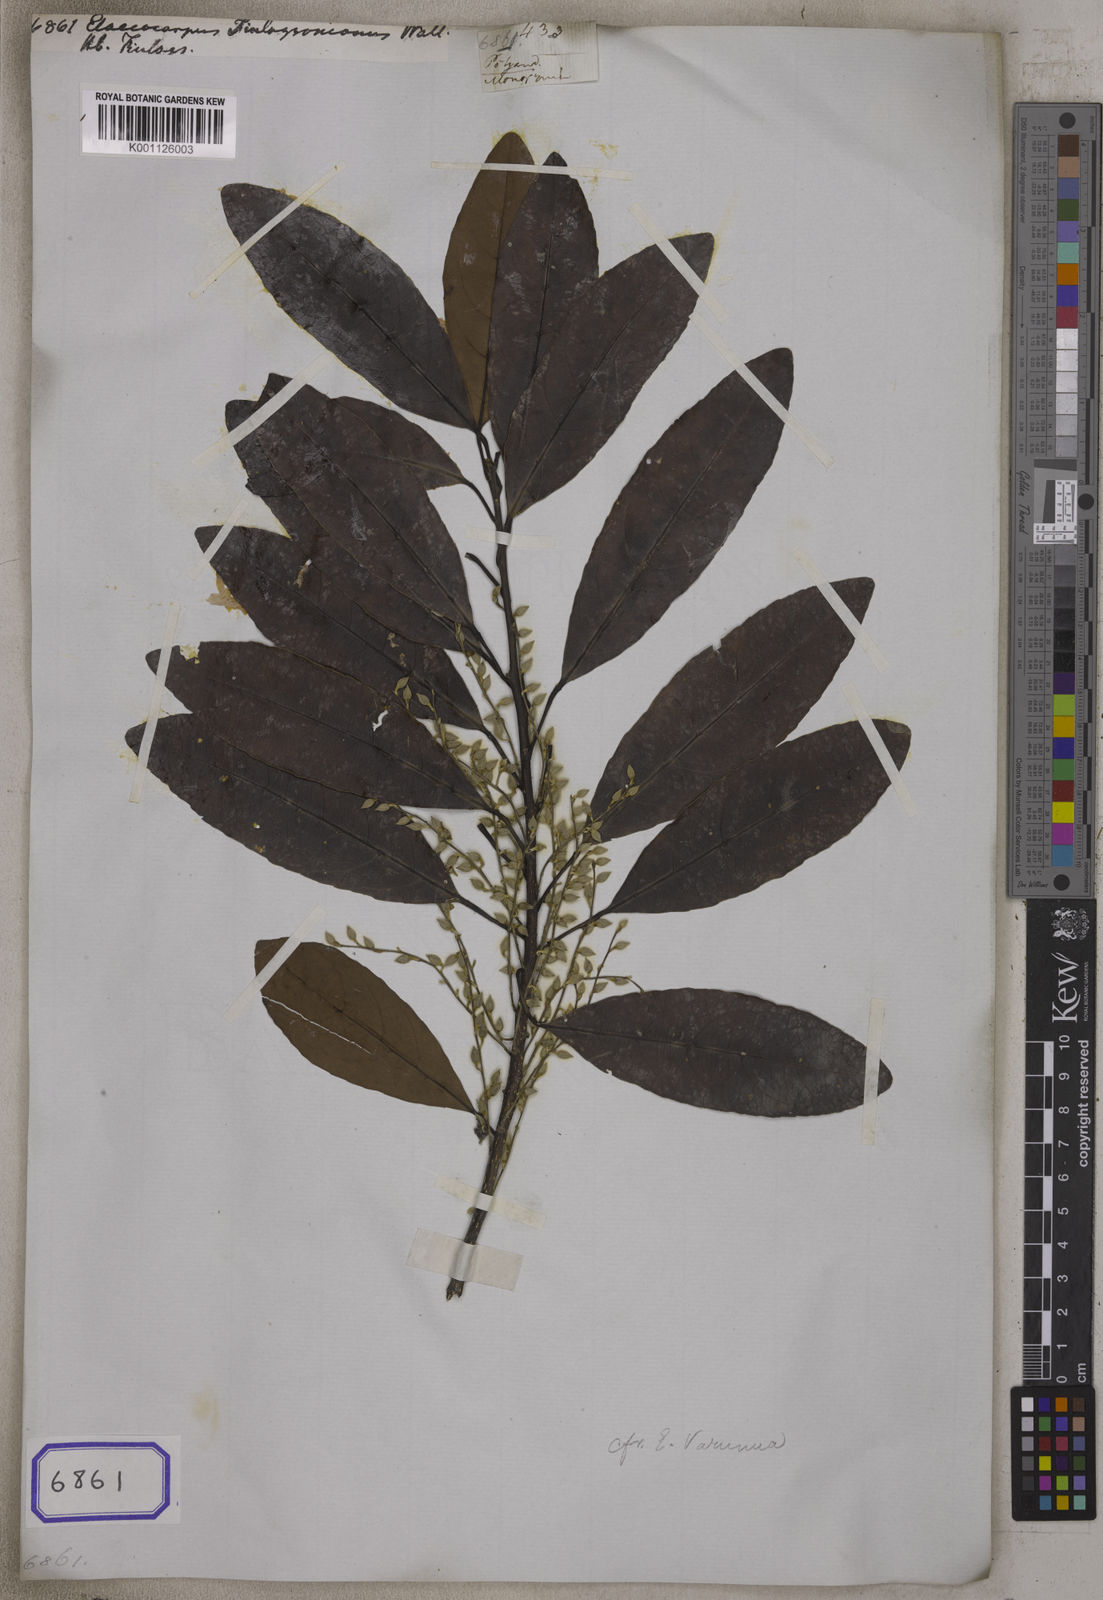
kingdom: Plantae
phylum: Tracheophyta
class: Magnoliopsida
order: Oxalidales
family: Elaeocarpaceae
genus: Elaeocarpus
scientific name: Elaeocarpus varunua
